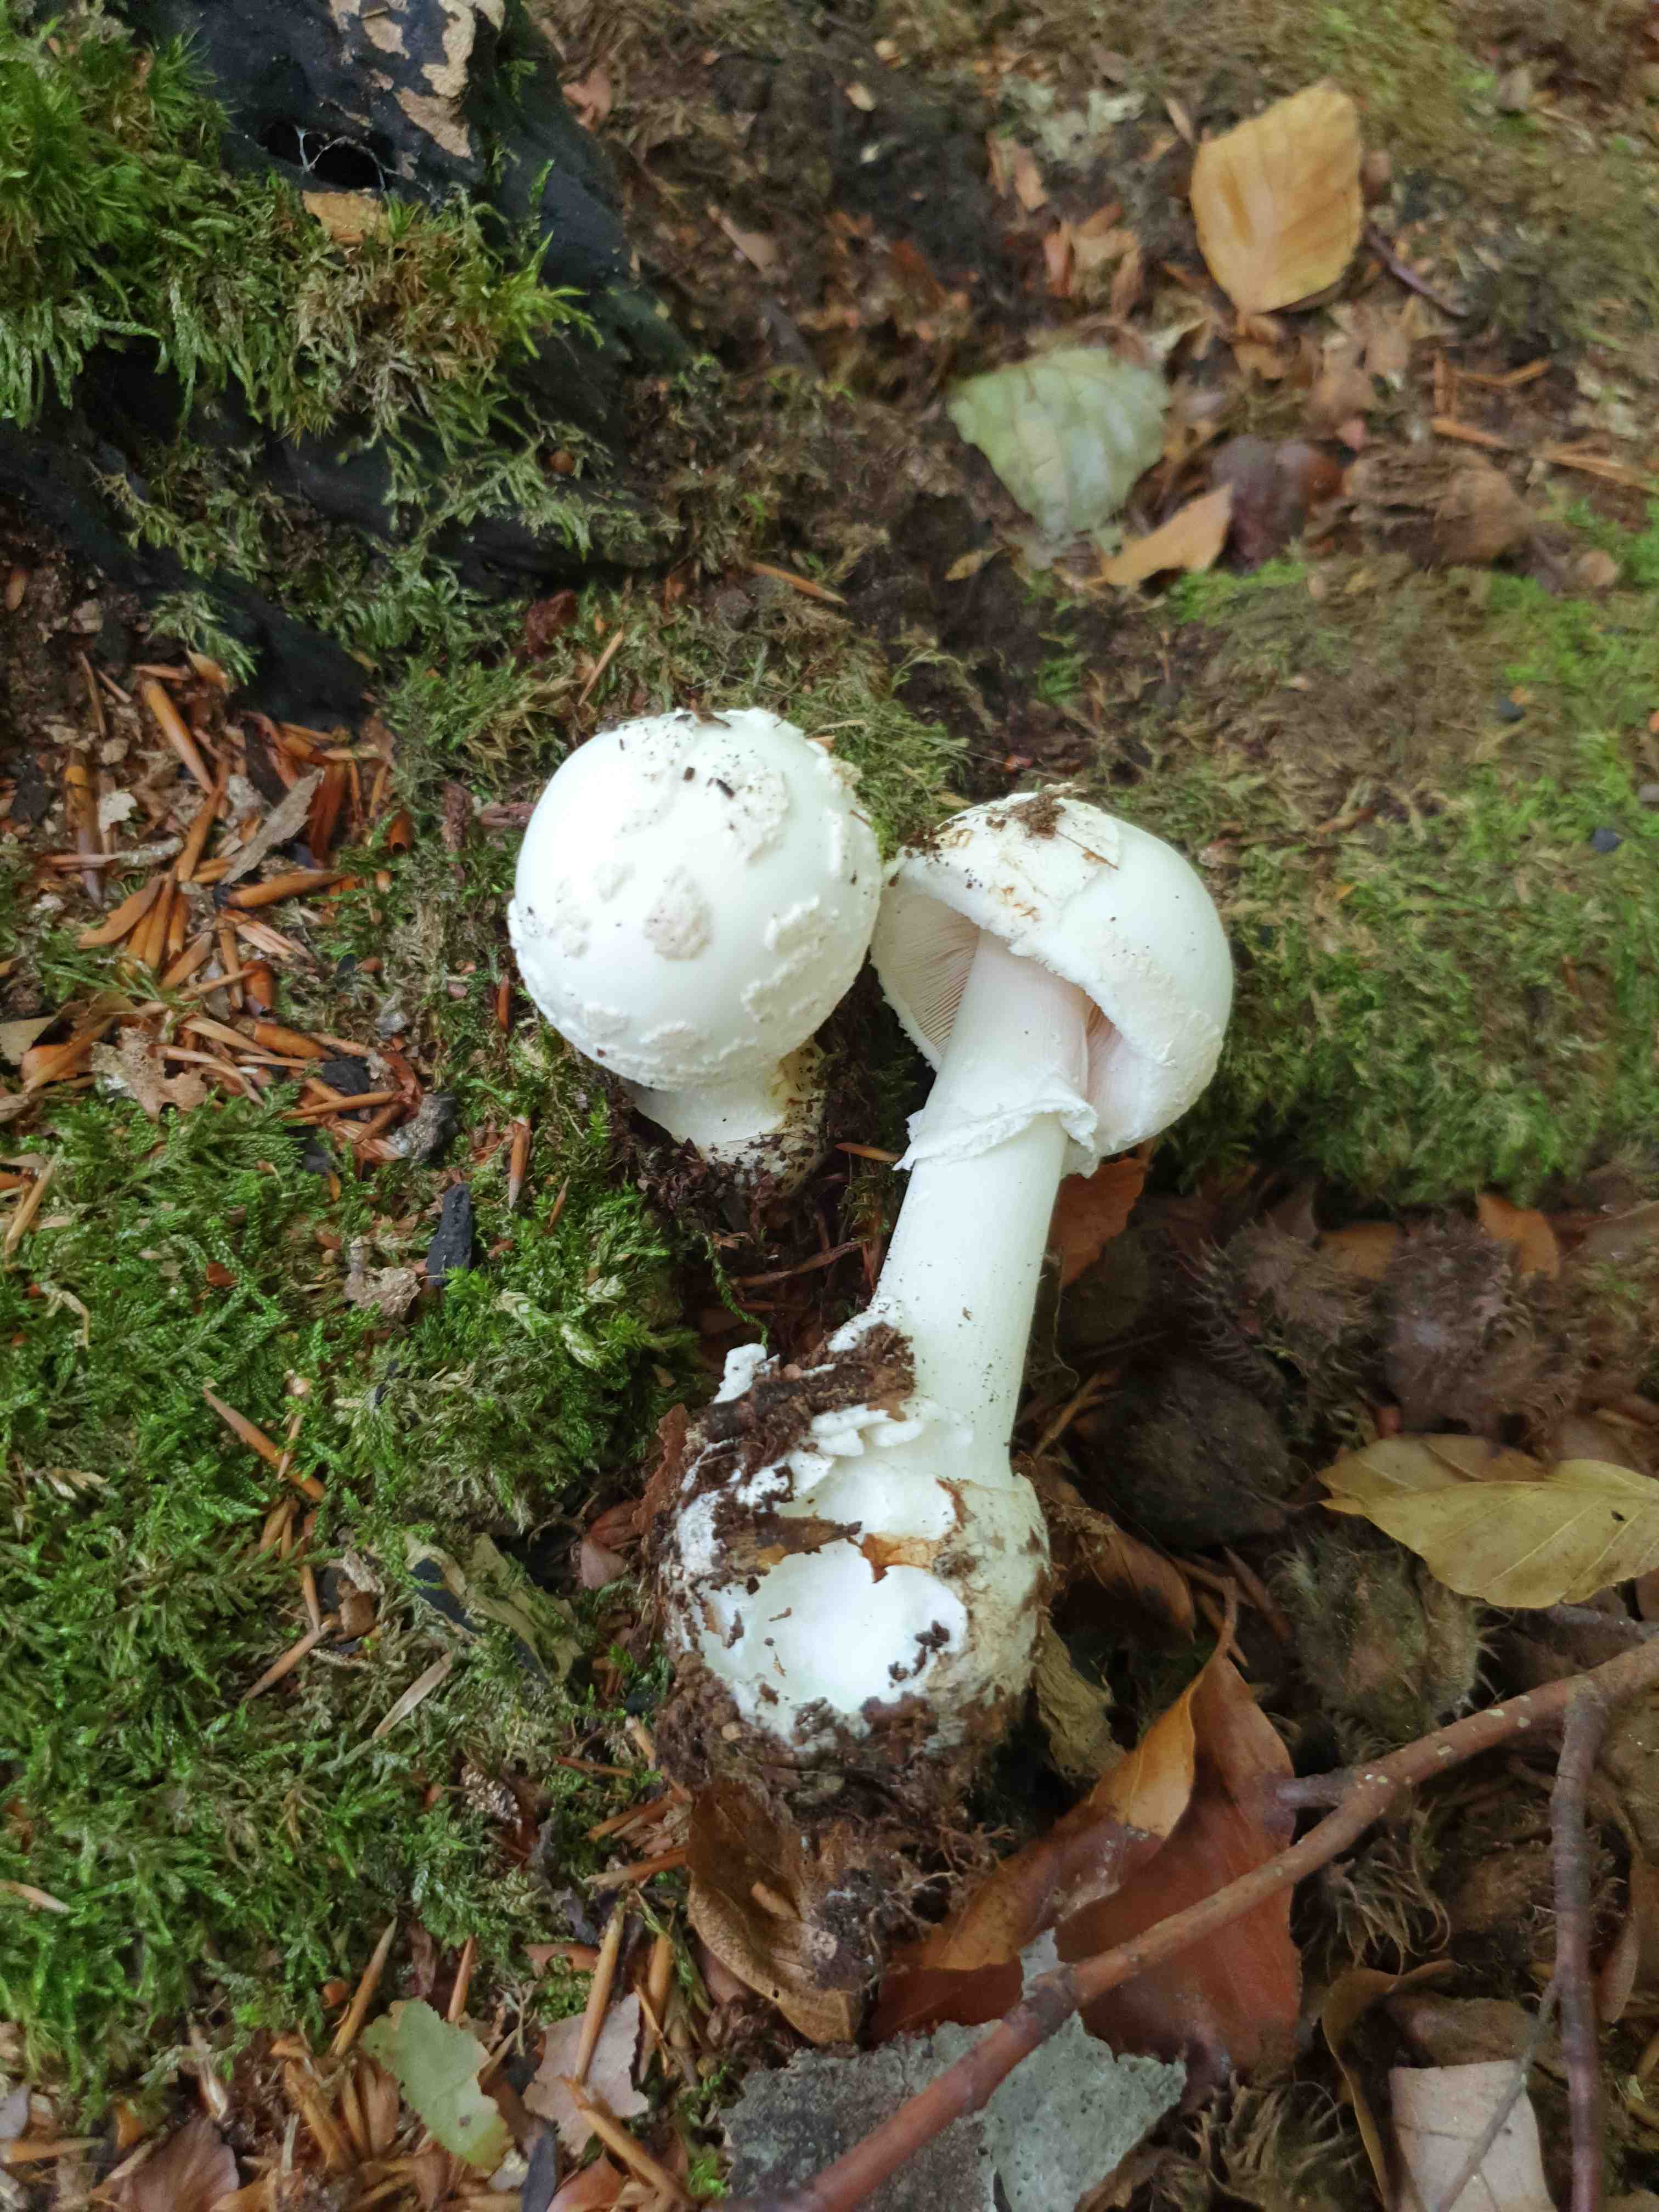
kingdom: Fungi
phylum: Basidiomycota
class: Agaricomycetes
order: Agaricales
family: Amanitaceae
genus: Amanita
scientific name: Amanita citrina
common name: kugleknoldet fluesvamp
